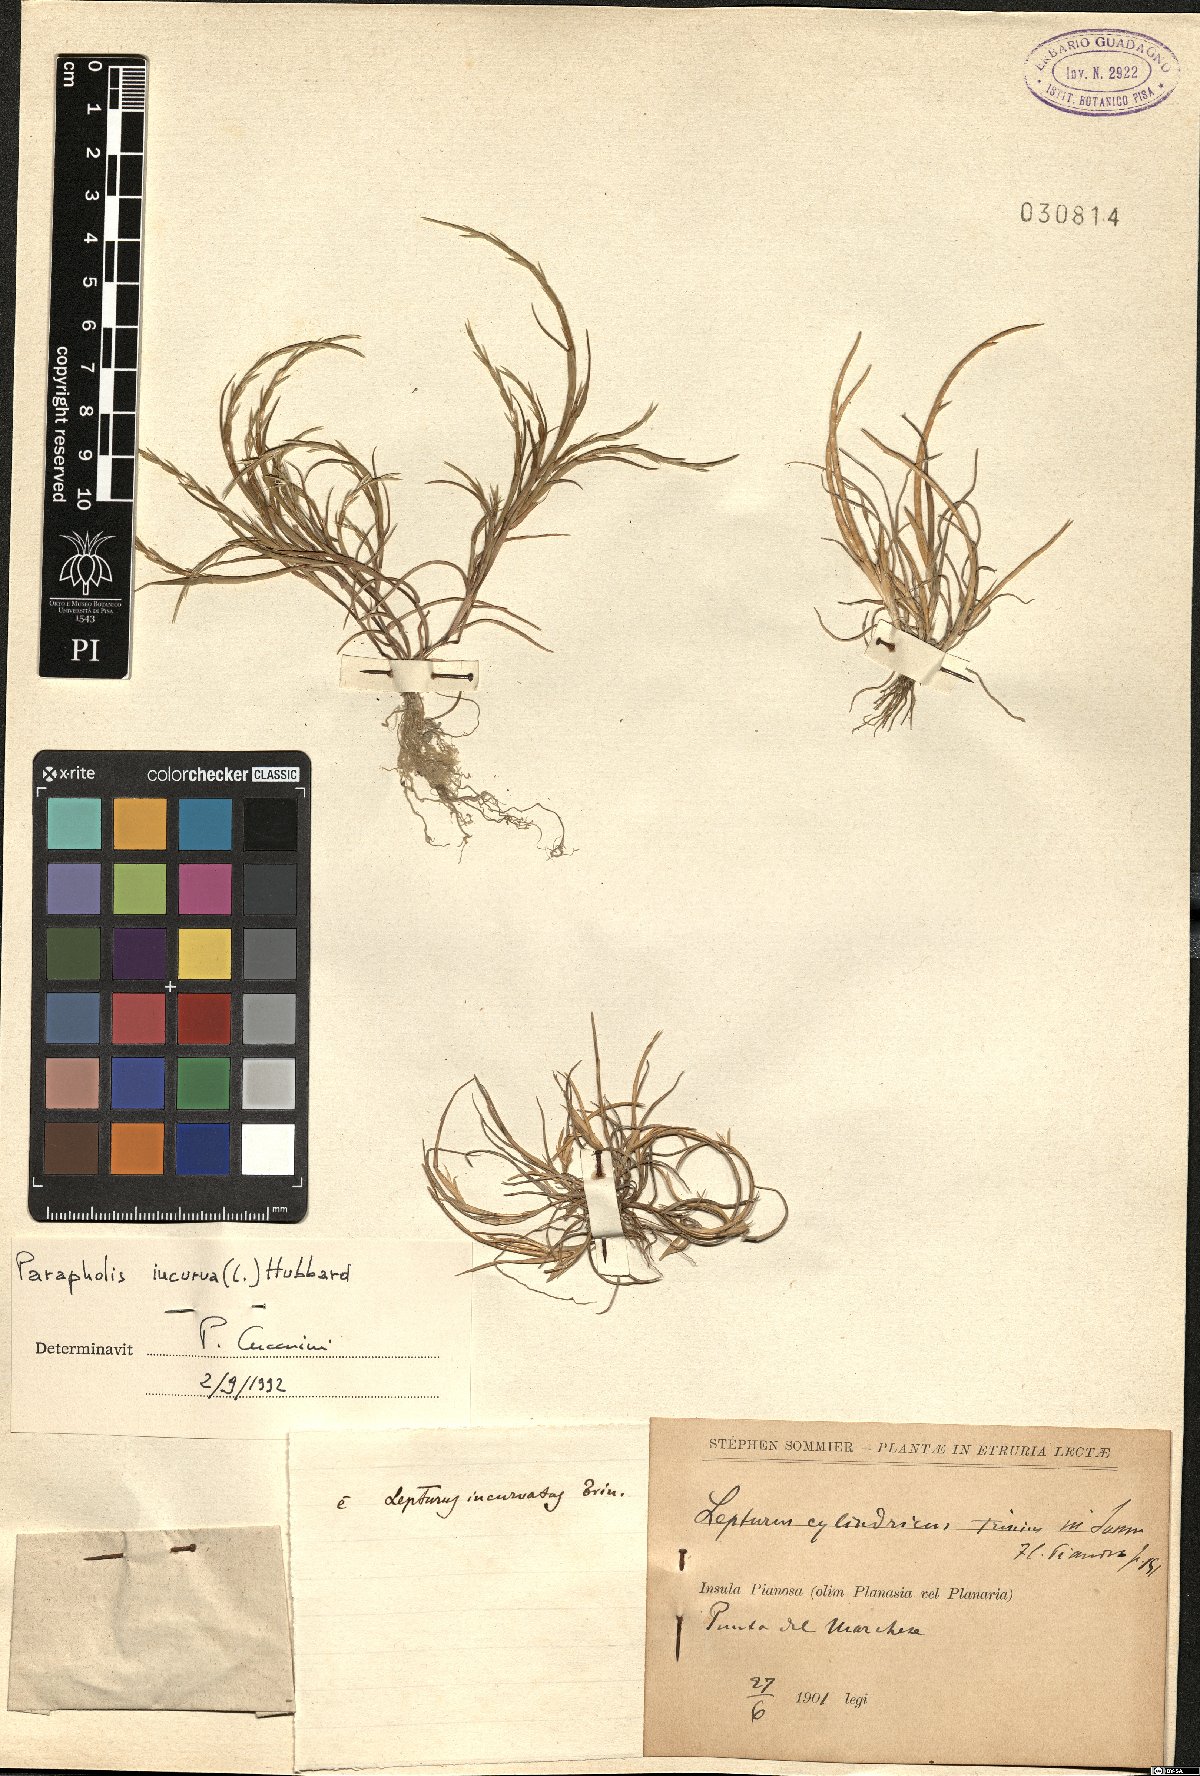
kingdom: Plantae
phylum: Tracheophyta
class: Liliopsida
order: Poales
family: Poaceae
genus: Parapholis
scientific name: Parapholis incurva
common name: Curved sicklegrass
